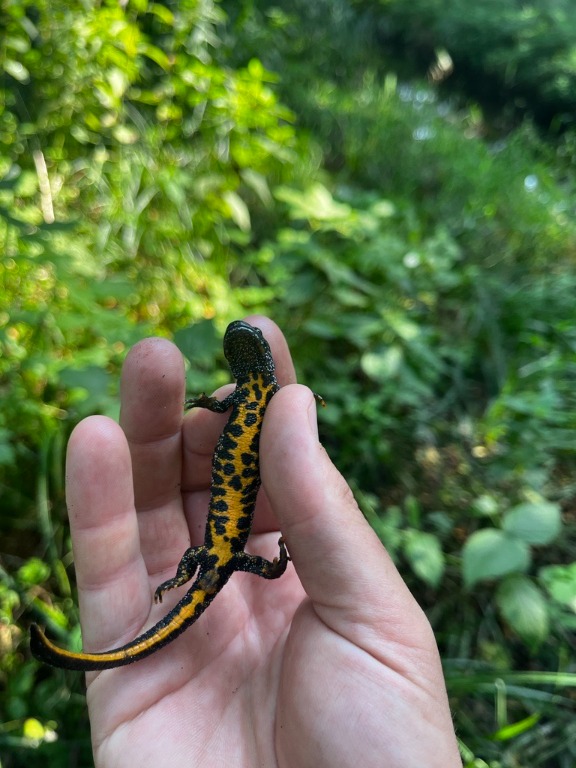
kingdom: Animalia
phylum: Chordata
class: Amphibia
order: Caudata
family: Salamandridae
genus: Triturus
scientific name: Triturus cristatus
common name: Stor vandsalamander
